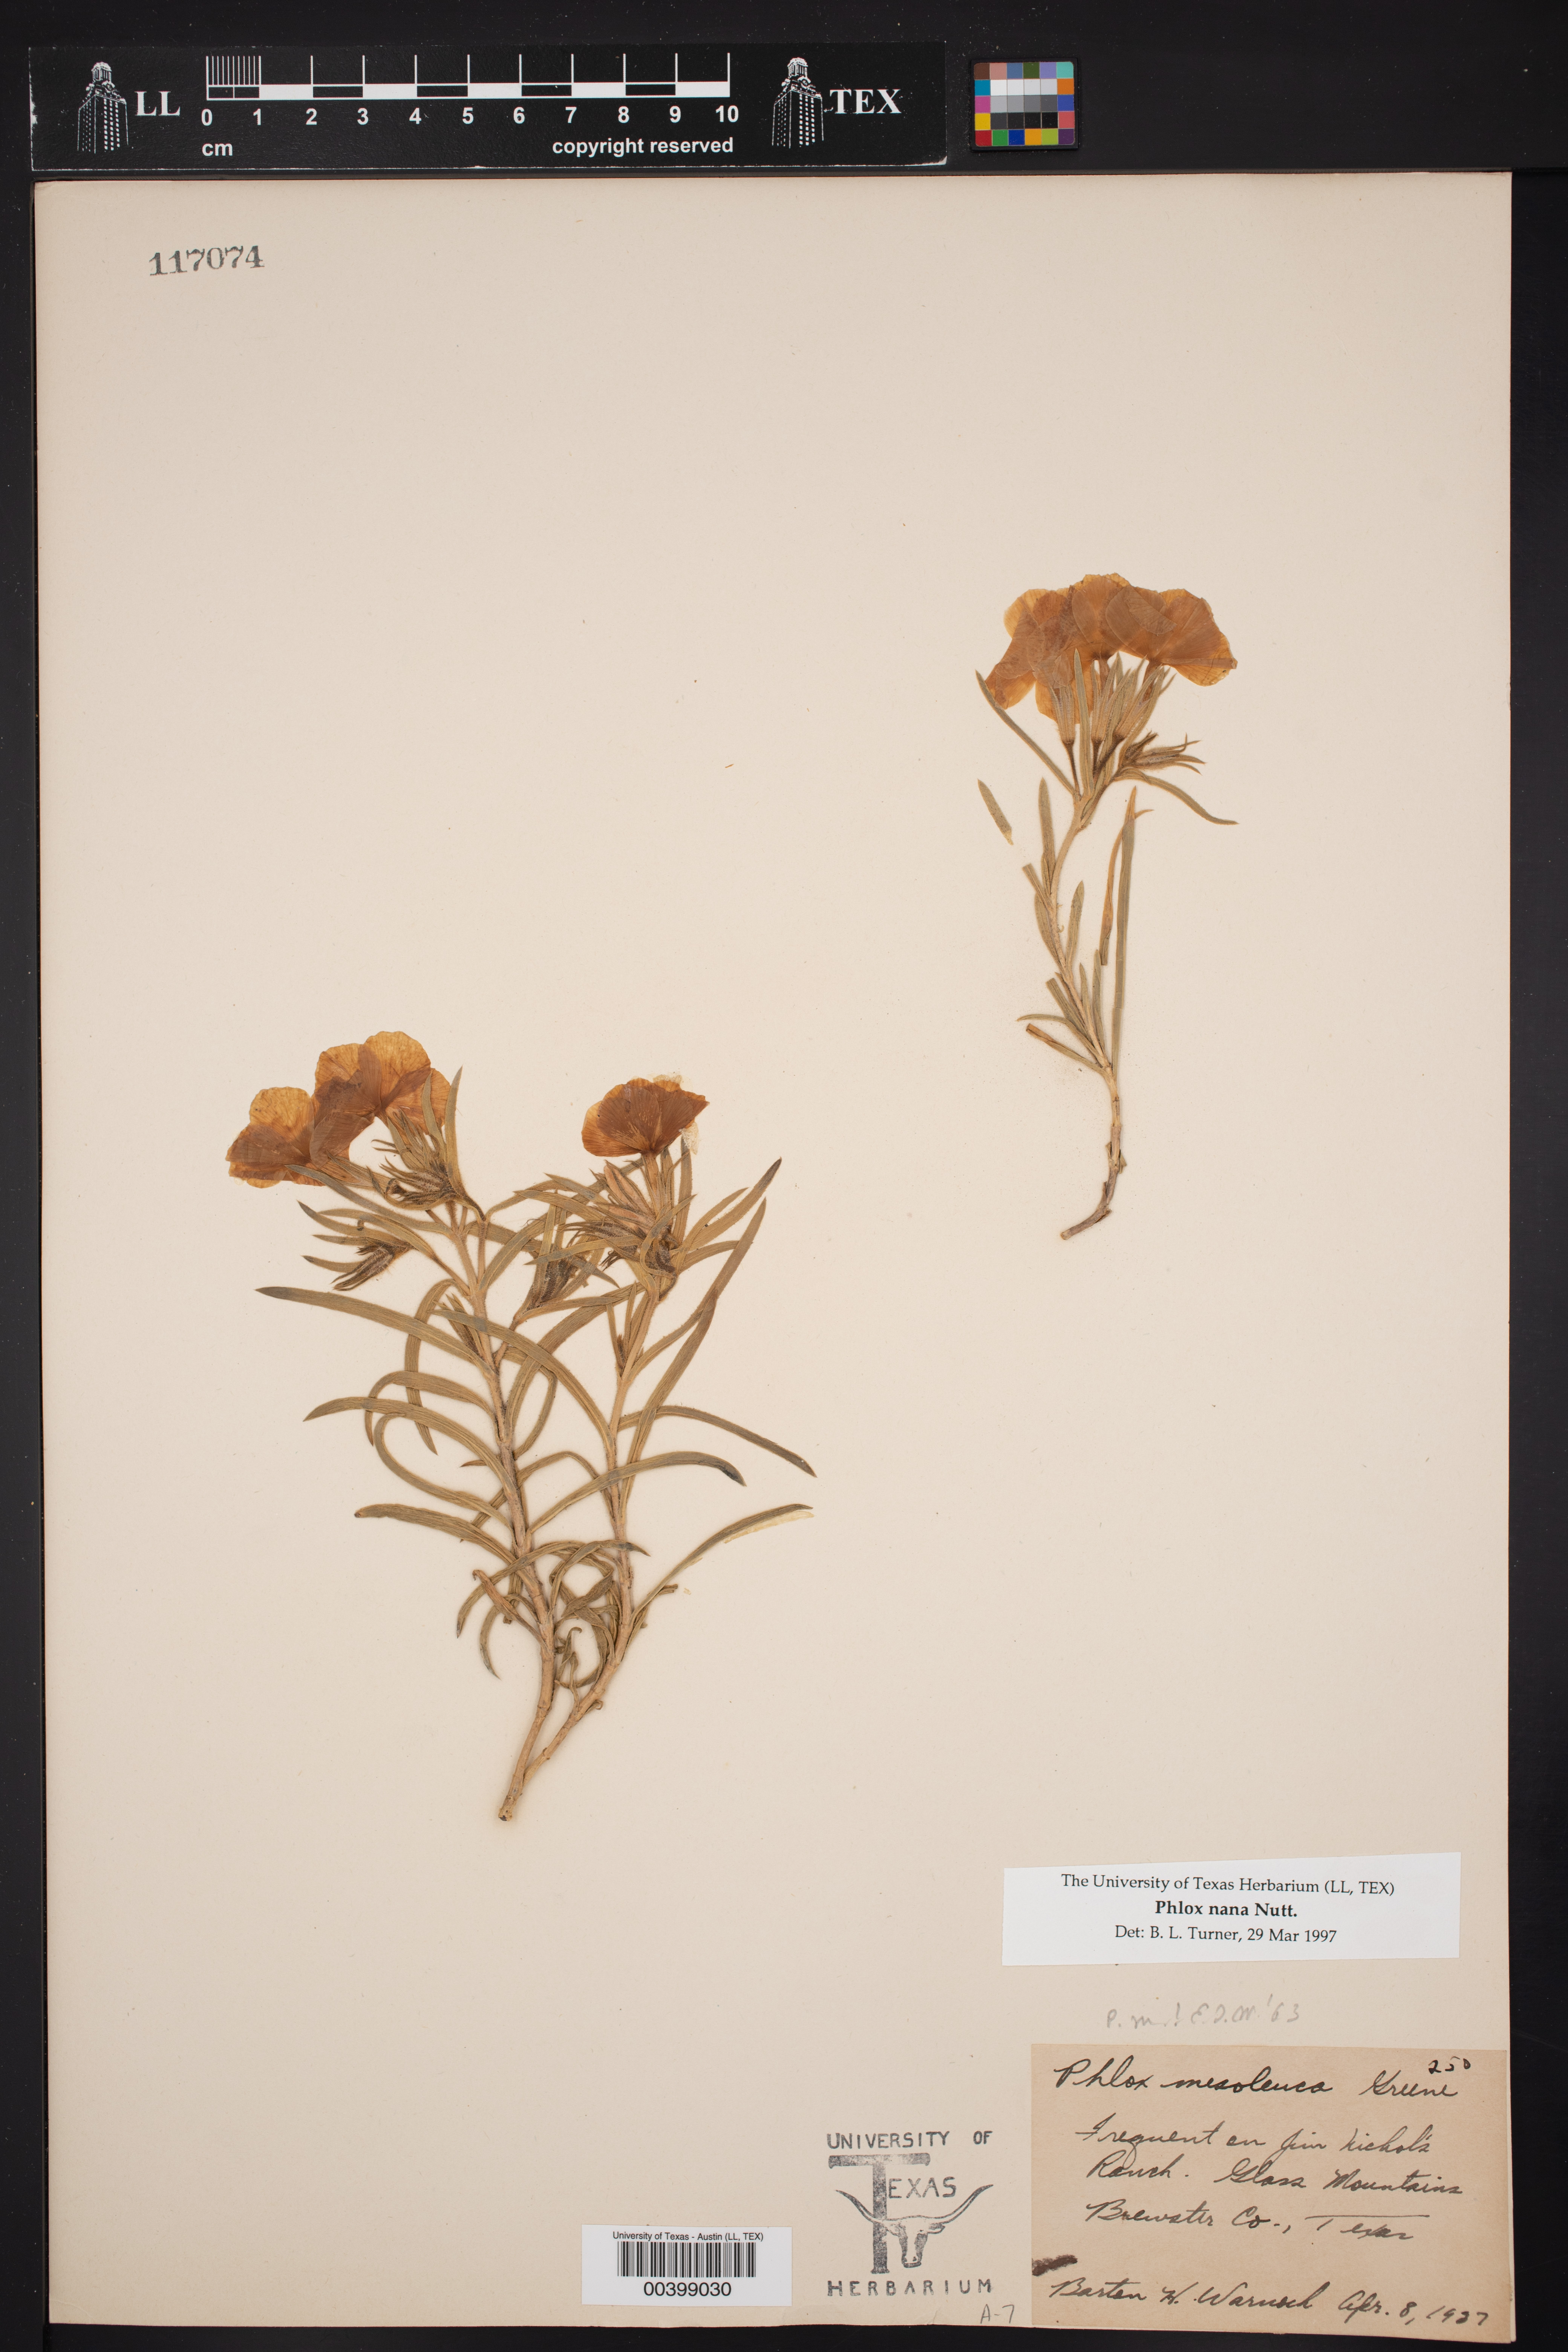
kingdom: Plantae
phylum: Tracheophyta
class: Magnoliopsida
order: Ericales
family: Polemoniaceae
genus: Phlox
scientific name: Phlox nana
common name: Santa fe phlox
